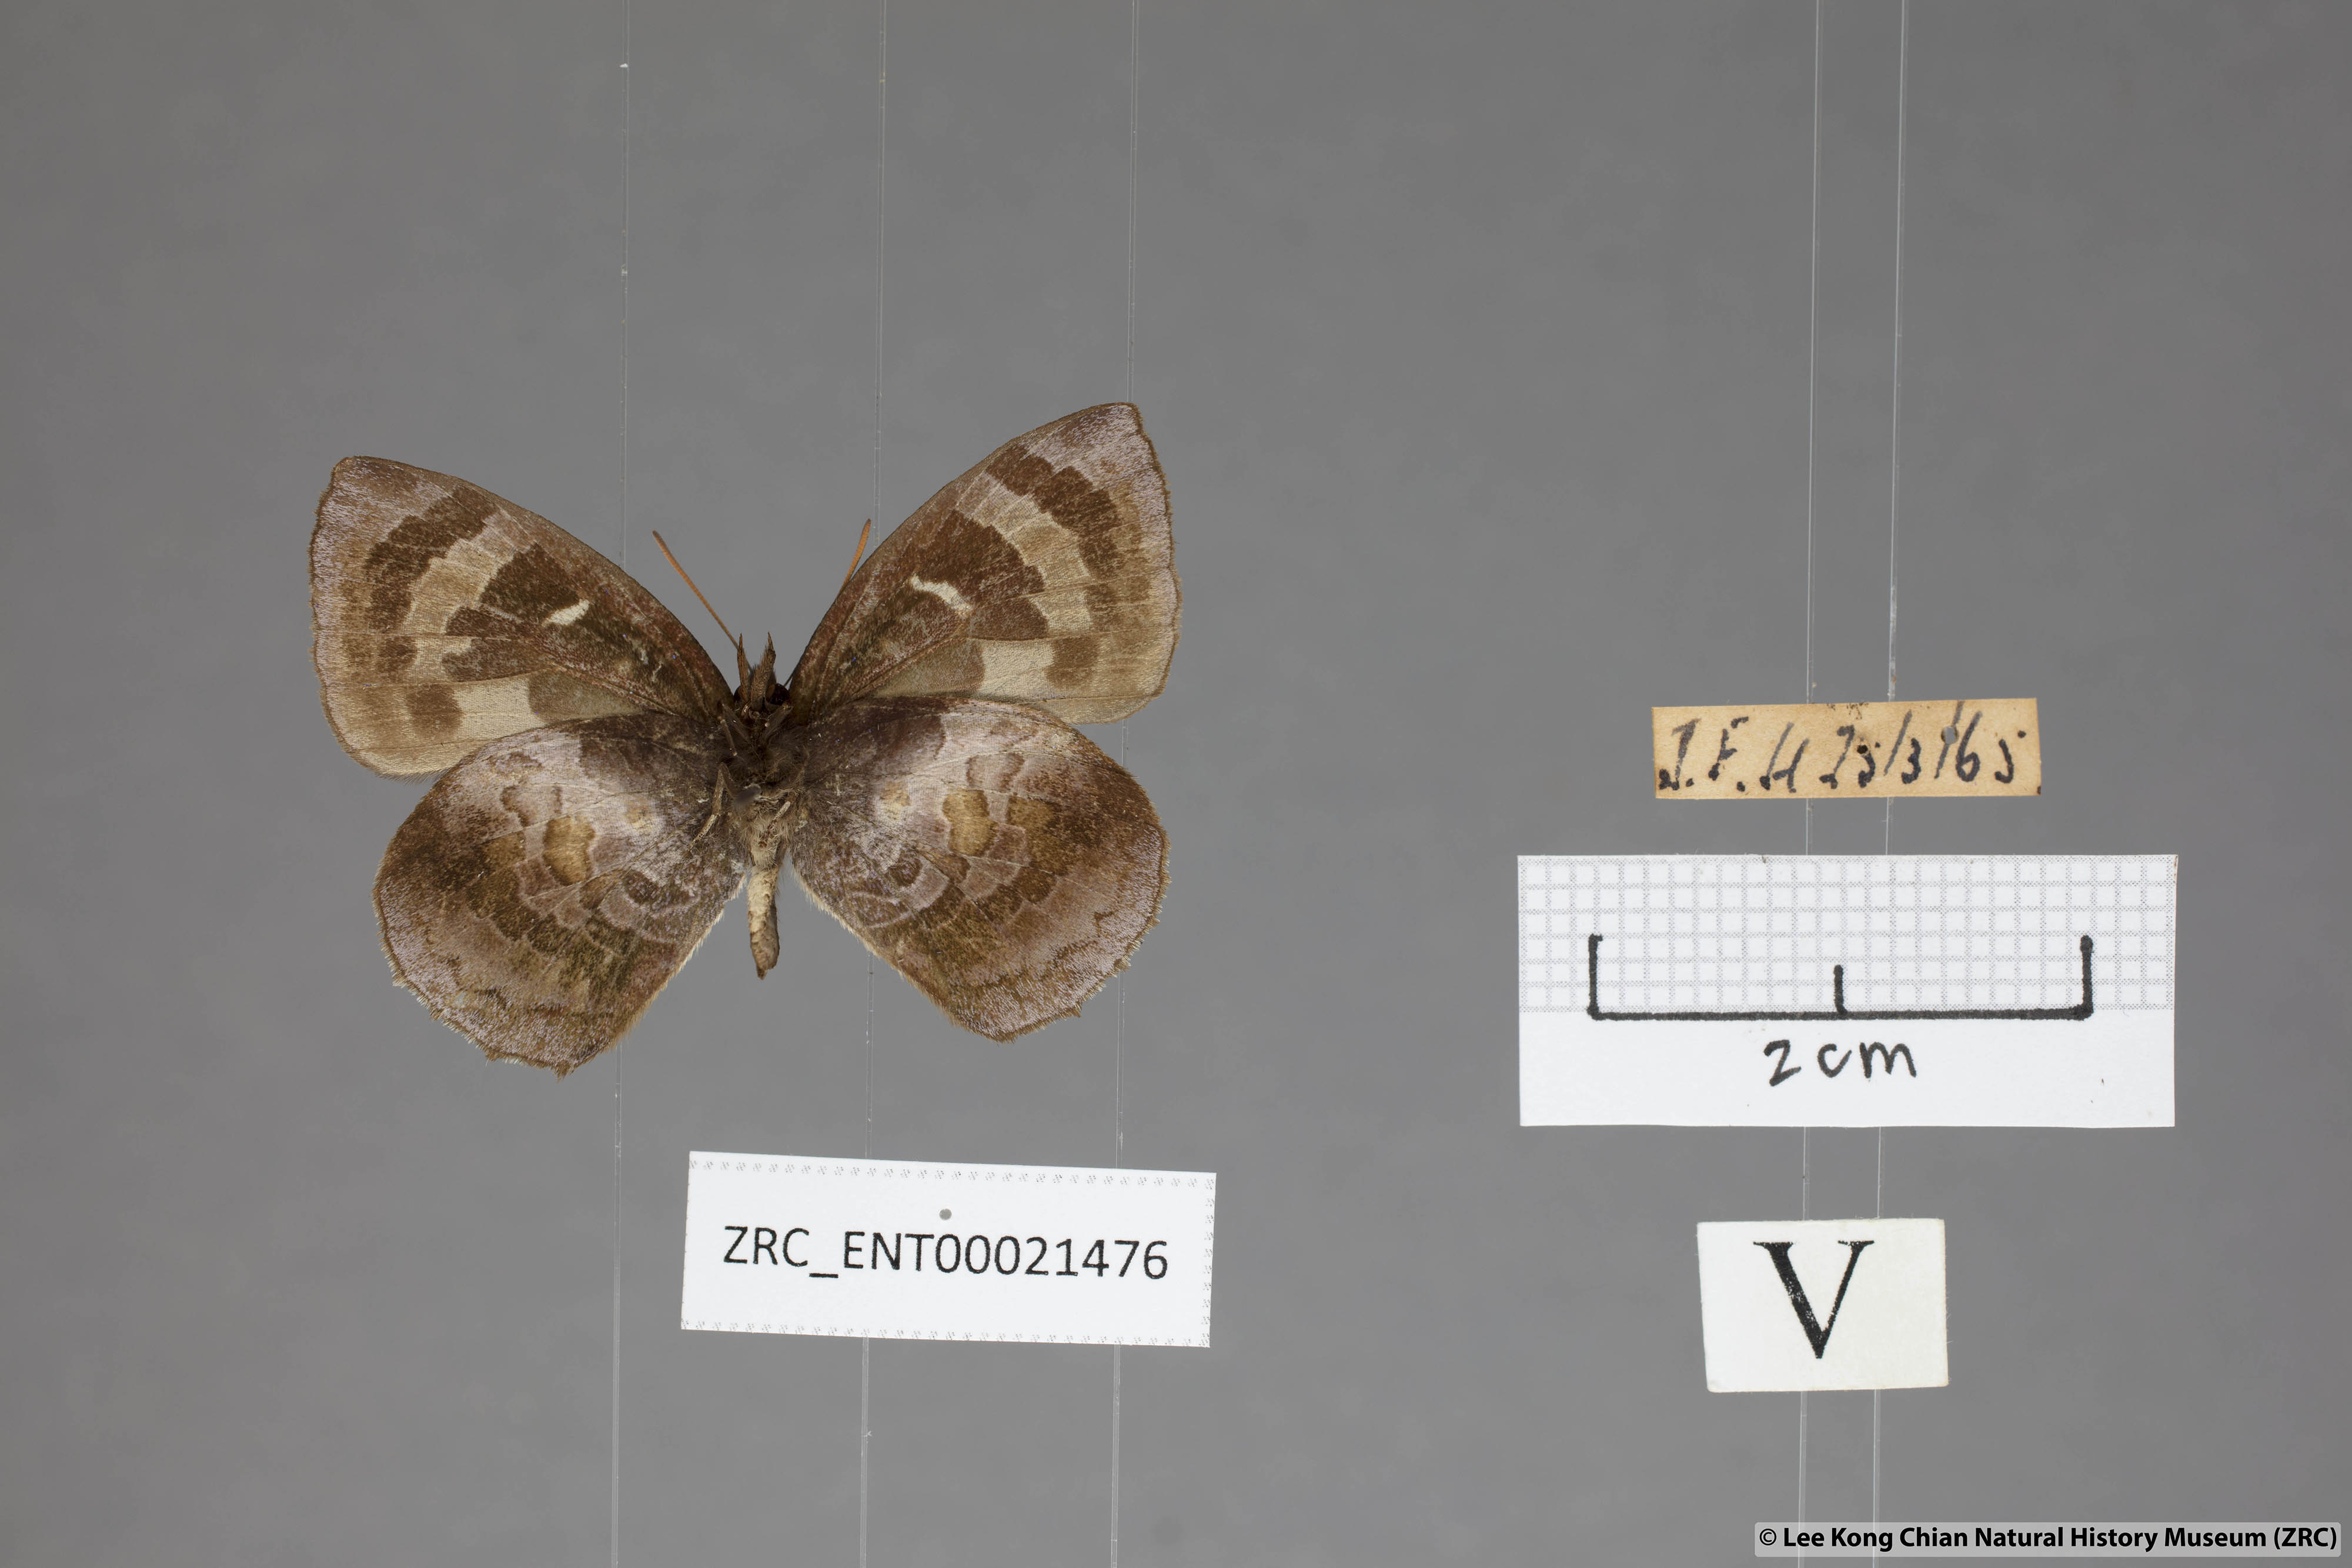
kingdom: Animalia
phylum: Arthropoda
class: Insecta
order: Lepidoptera
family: Lycaenidae
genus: Flos
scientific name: Flos
